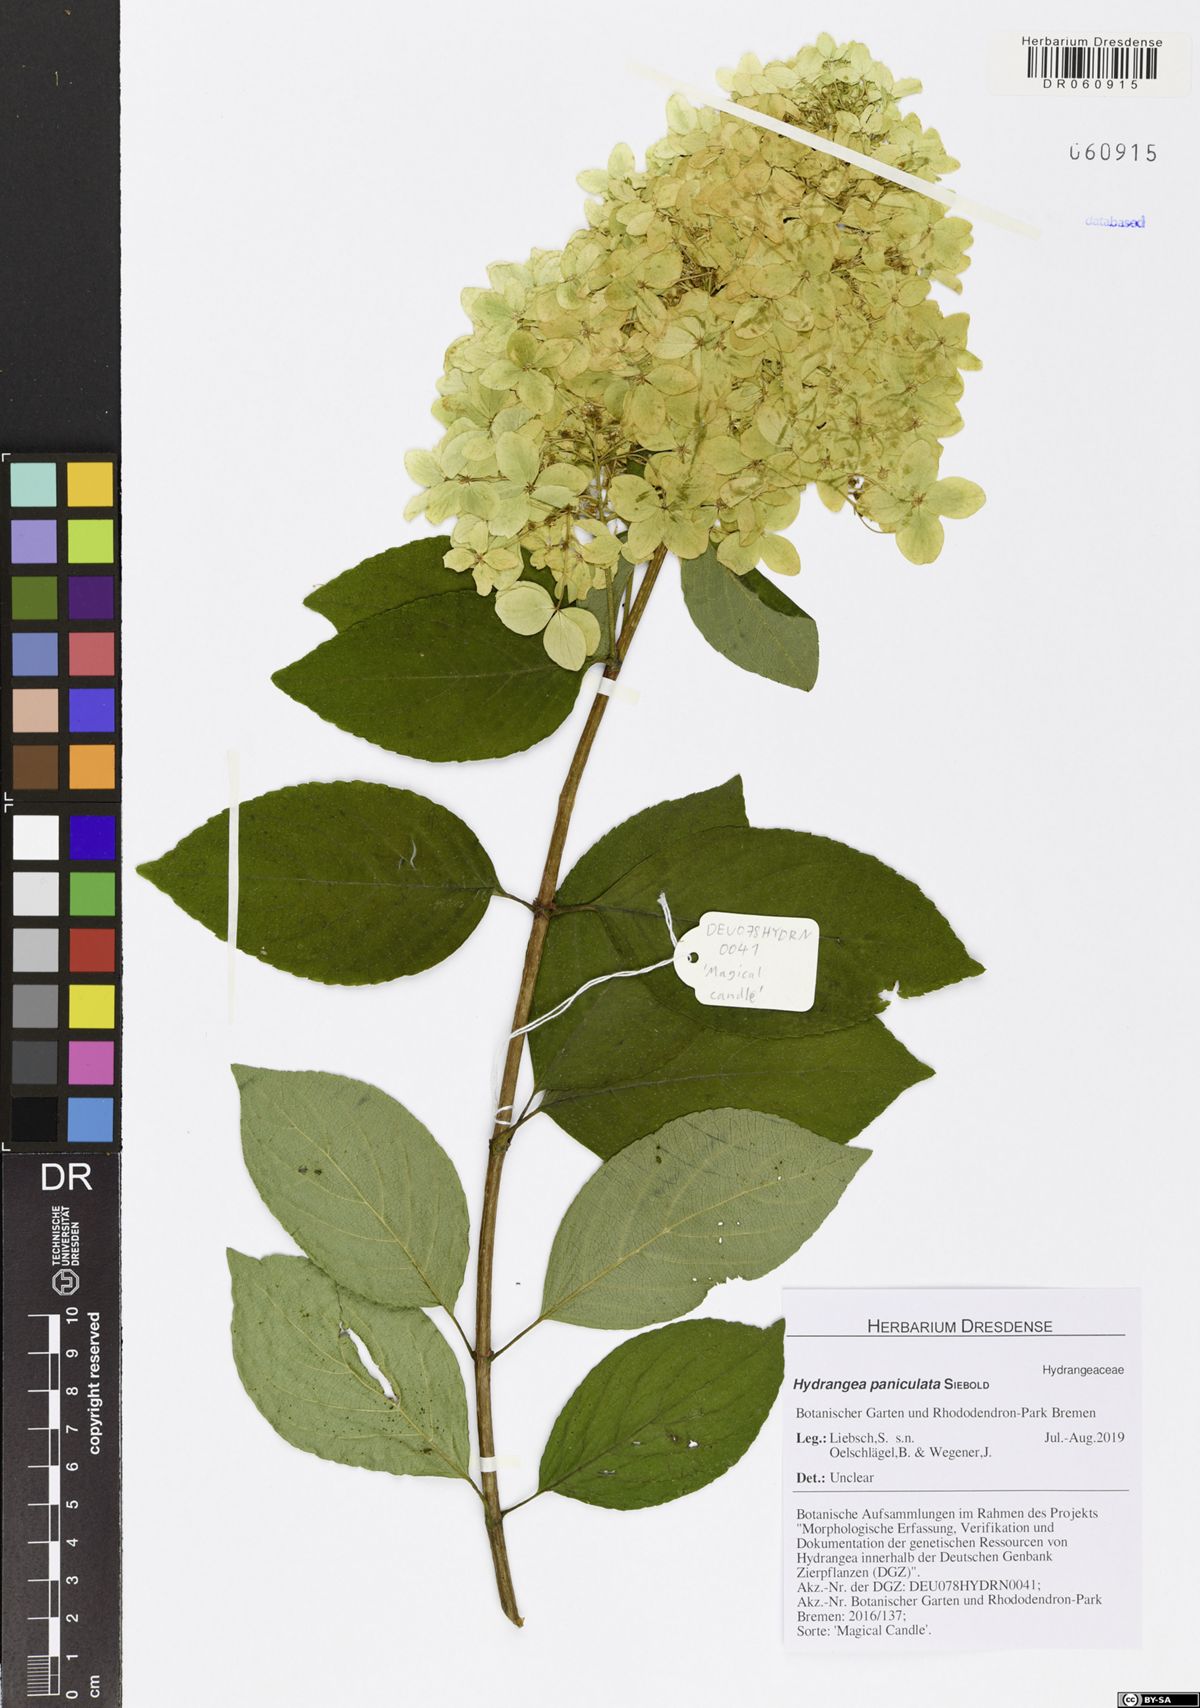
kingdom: Plantae
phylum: Tracheophyta
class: Magnoliopsida
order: Cornales
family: Hydrangeaceae
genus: Hydrangea
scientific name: Hydrangea paniculata
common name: Panicled hydrangea
